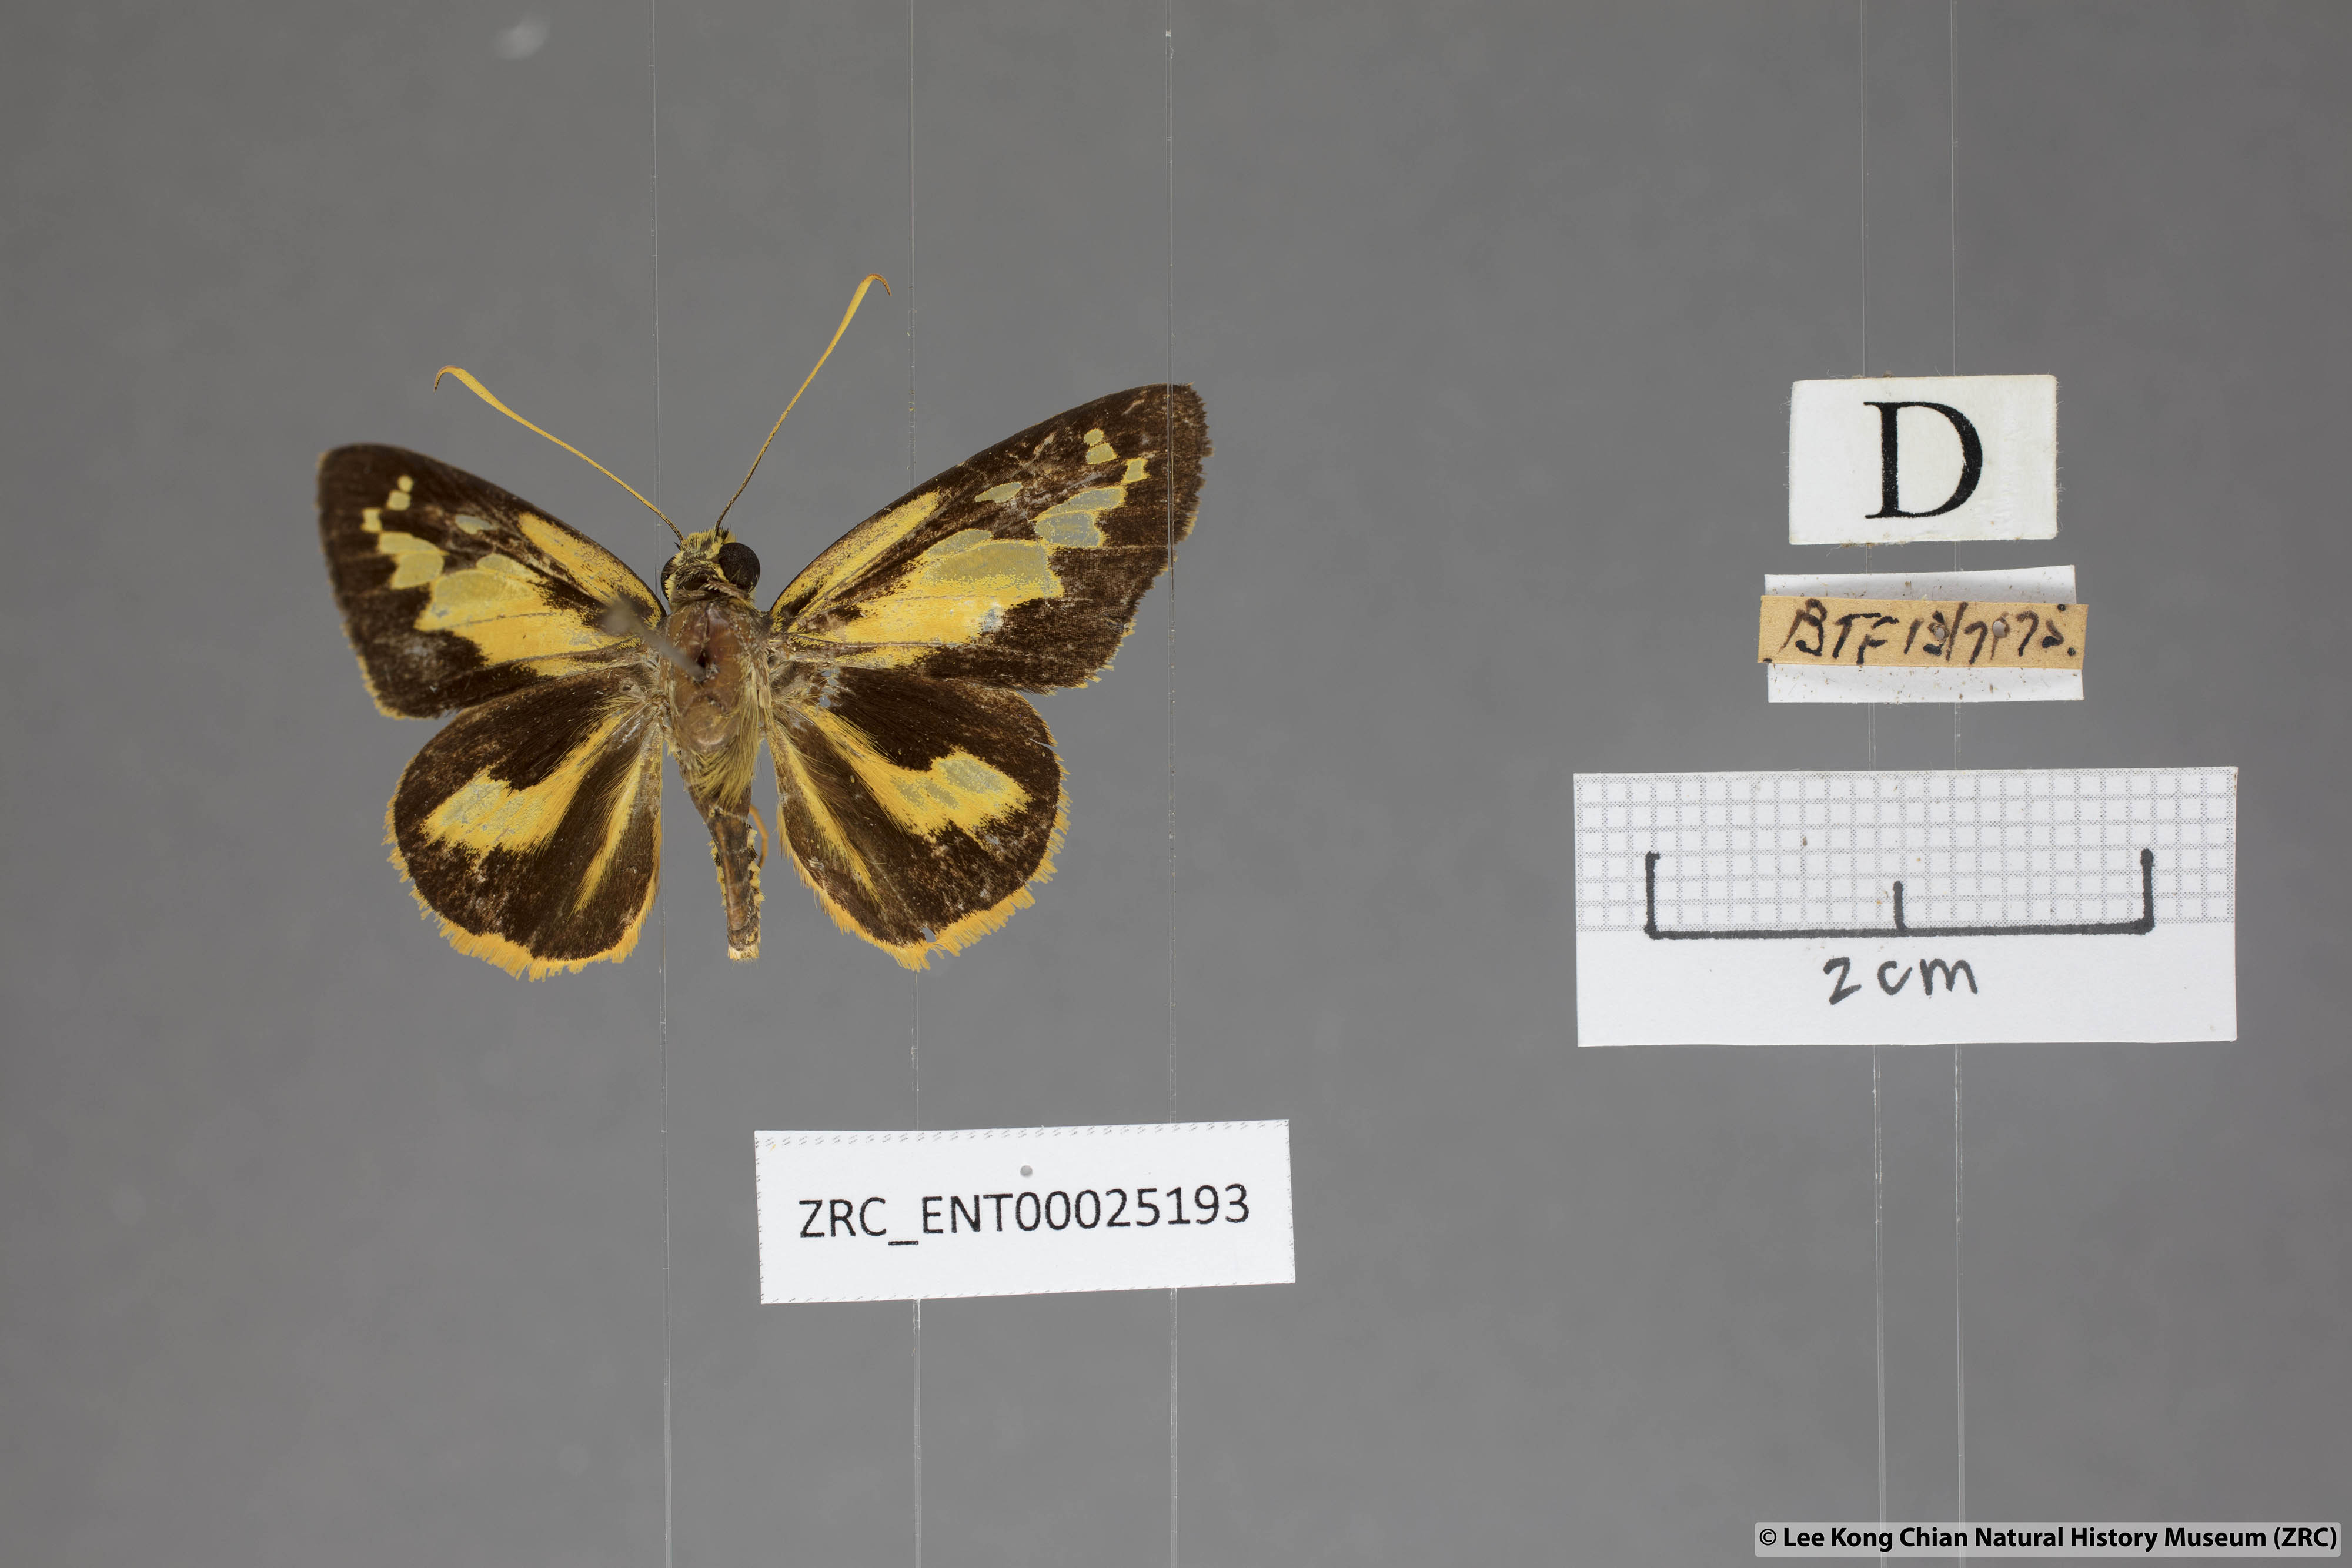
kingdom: Animalia
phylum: Arthropoda
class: Insecta
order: Lepidoptera
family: Hesperiidae
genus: Pyroneura
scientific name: Pyroneura
